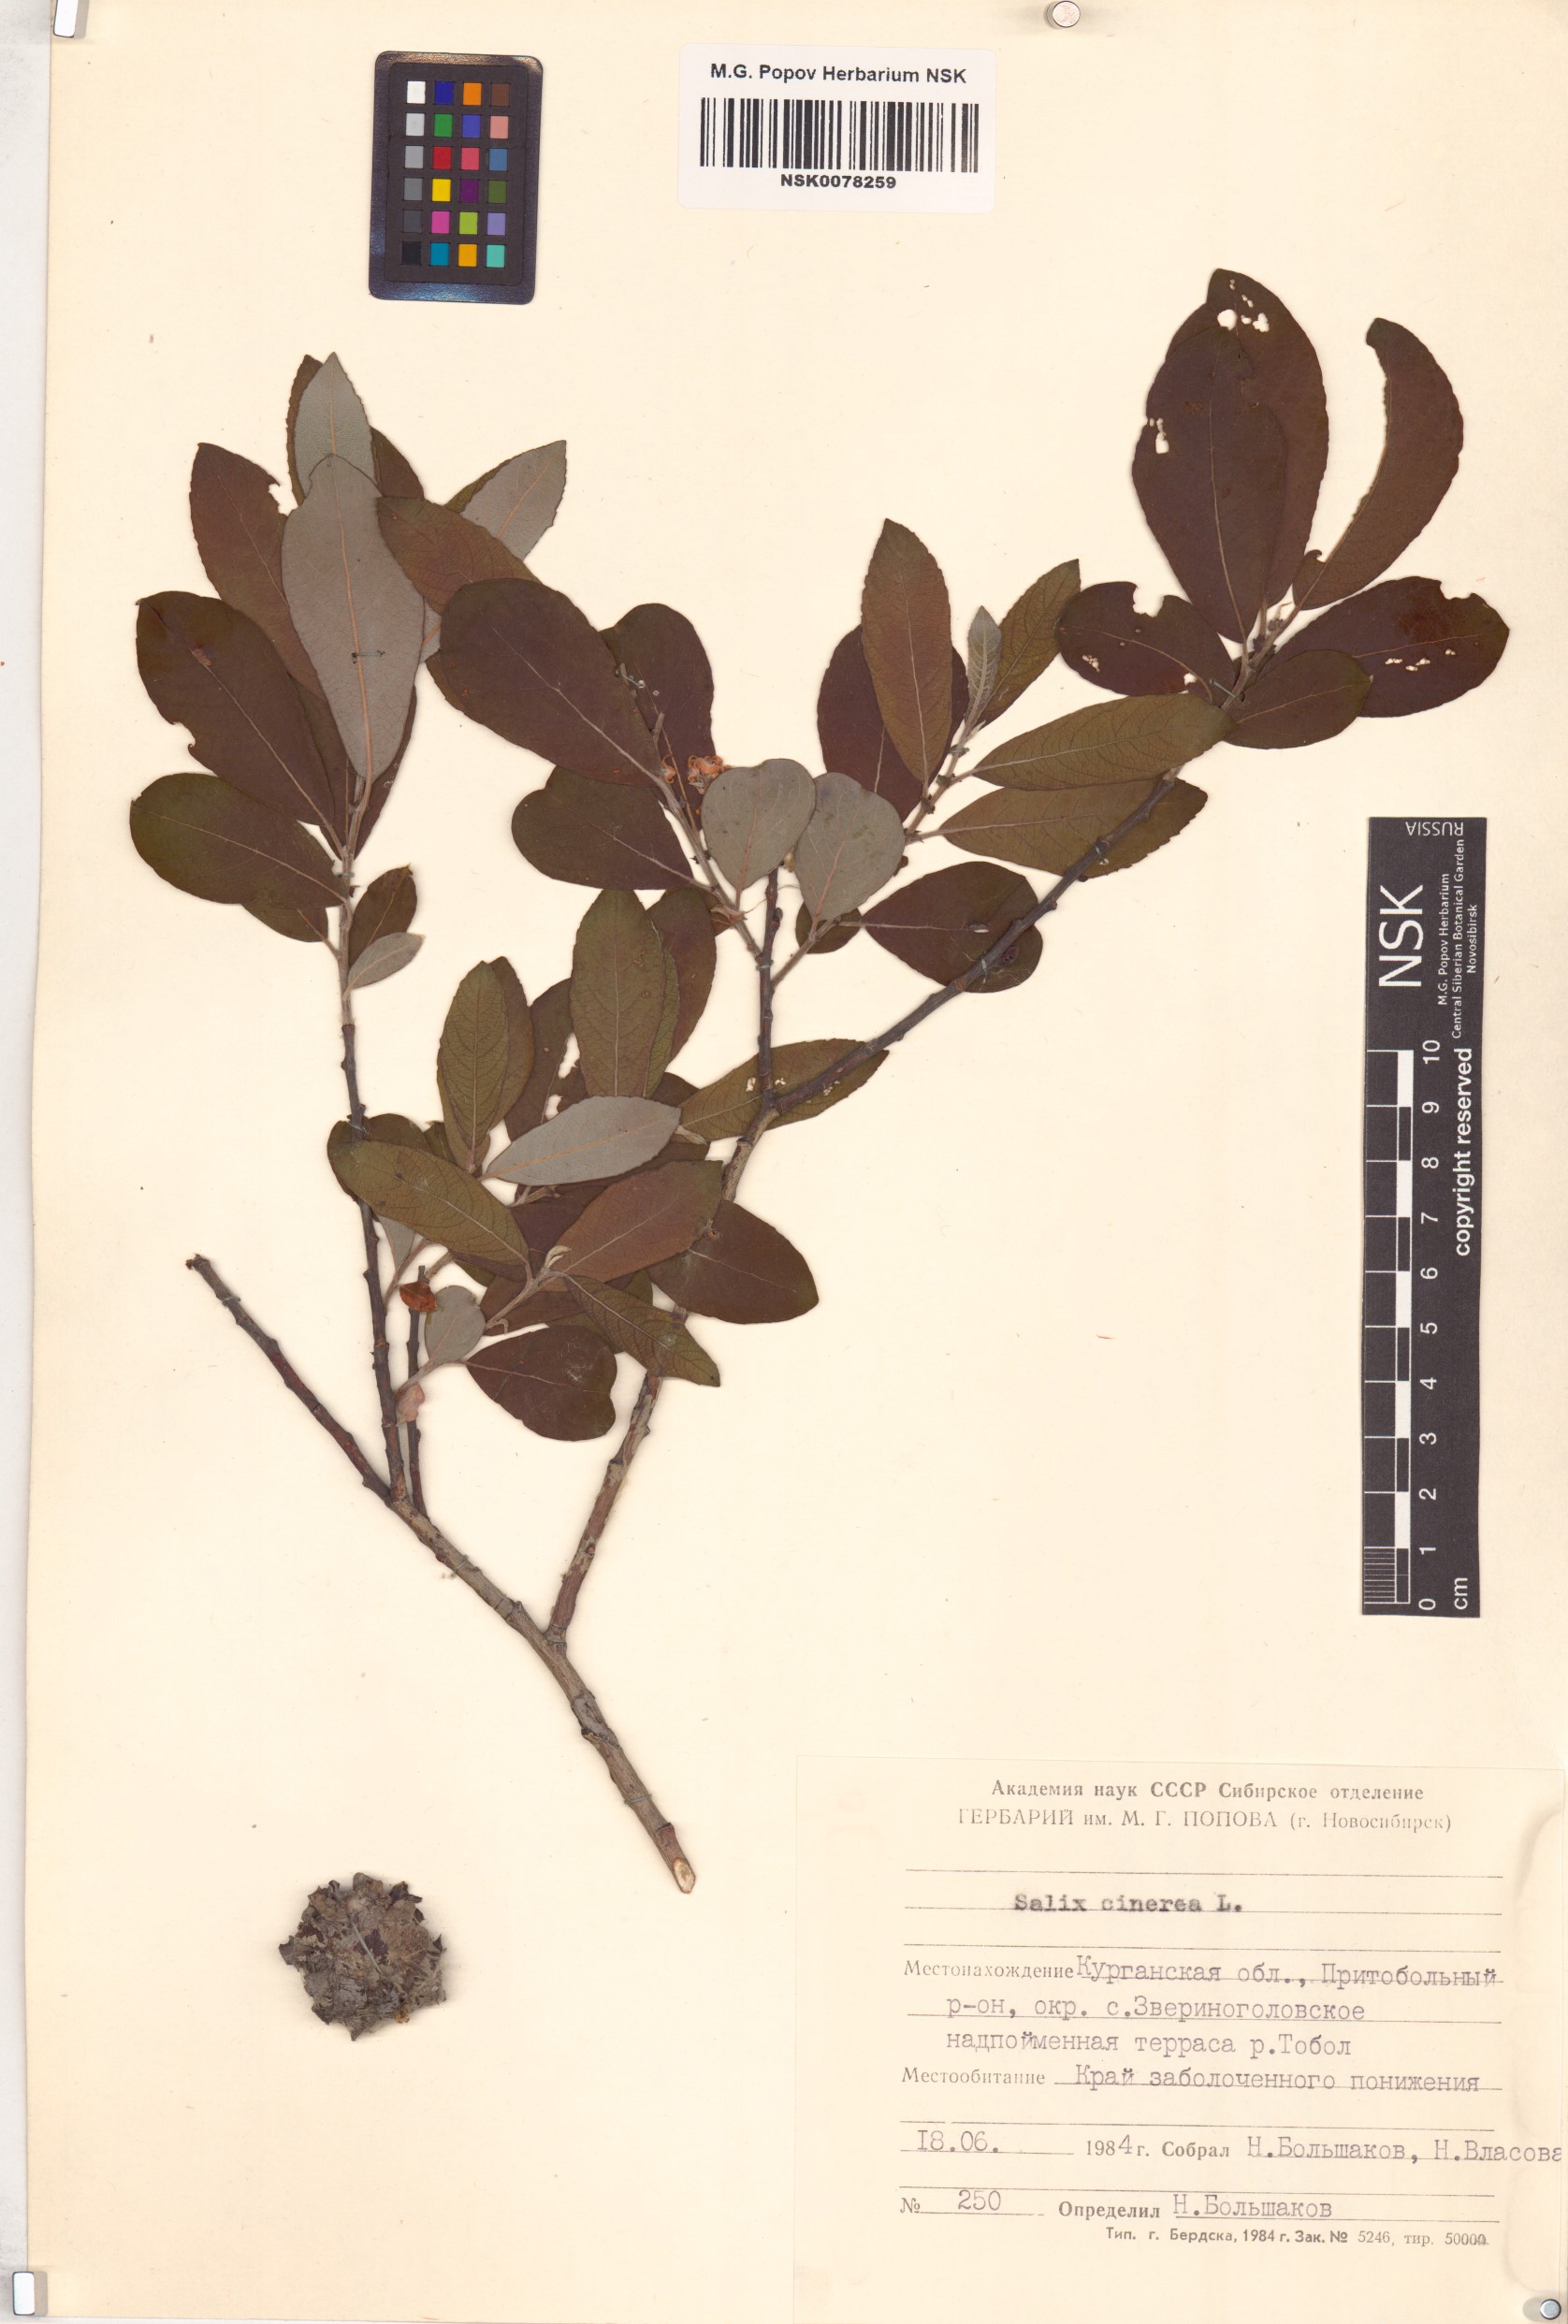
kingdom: Plantae
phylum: Tracheophyta
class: Magnoliopsida
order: Malpighiales
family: Salicaceae
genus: Salix
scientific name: Salix cinerea
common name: Common sallow
